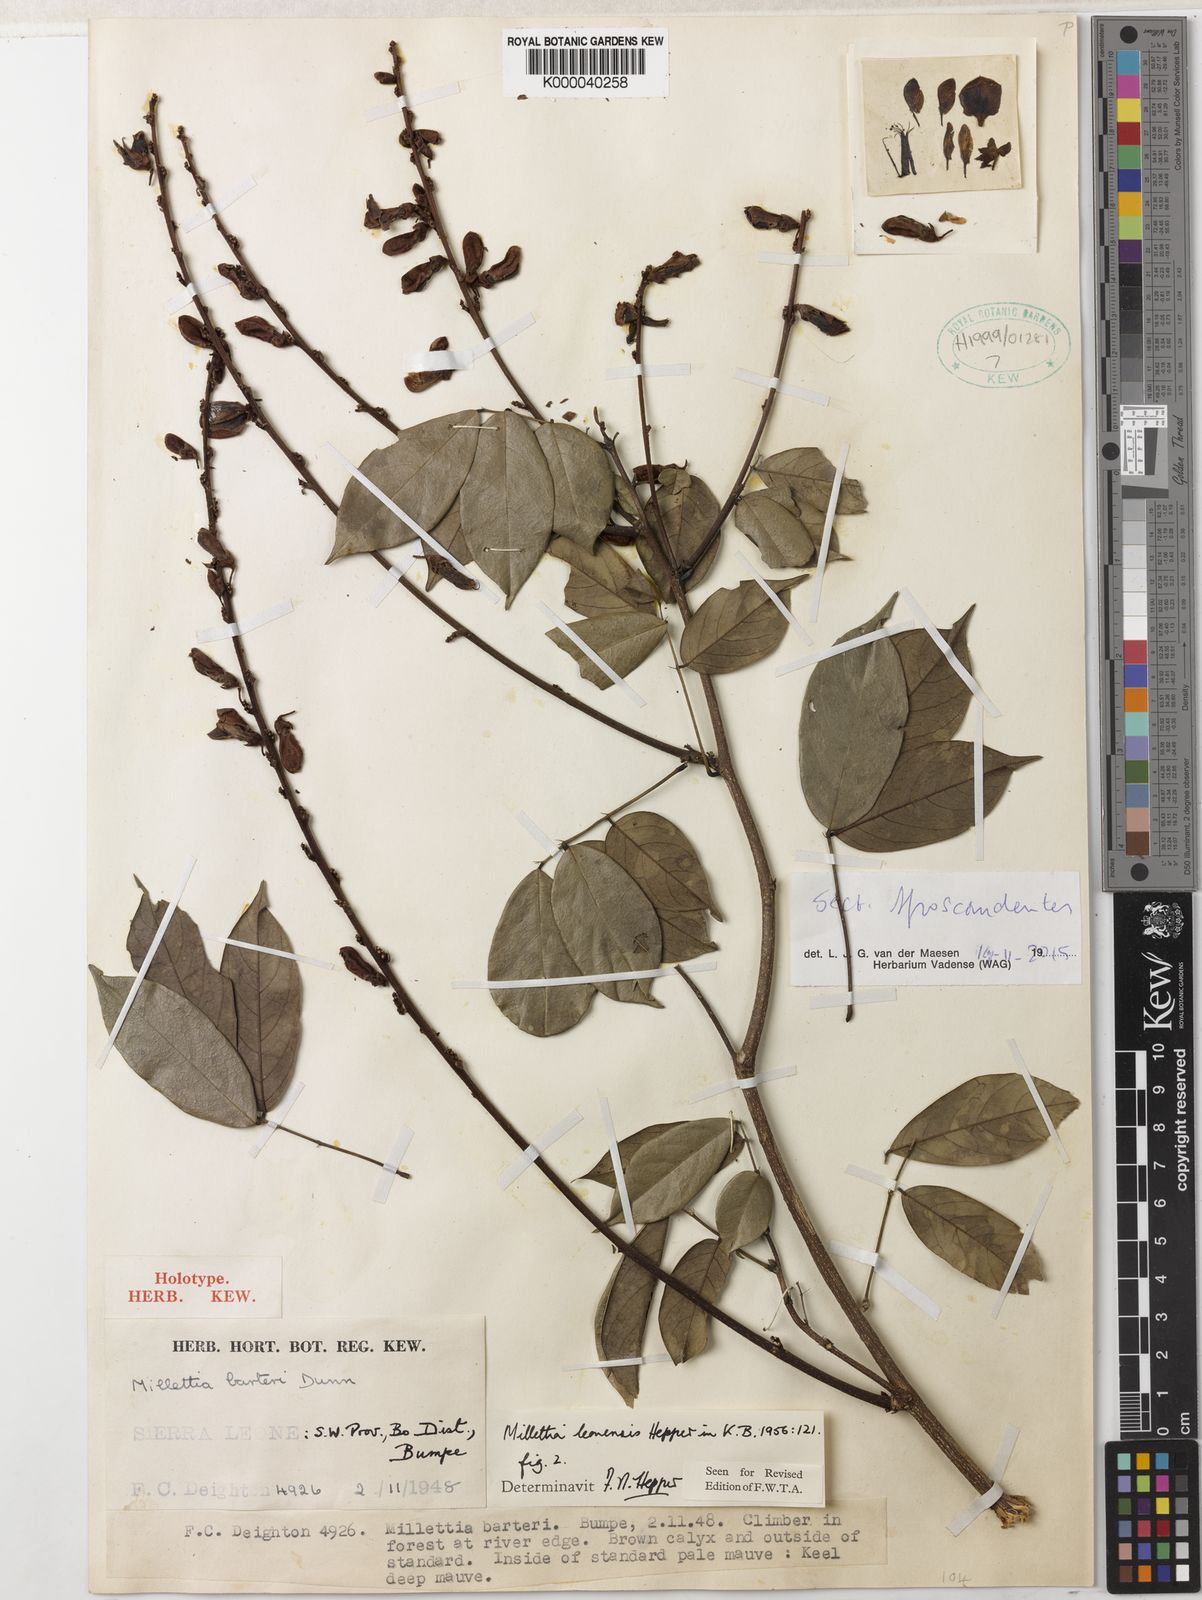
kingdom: Plantae
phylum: Tracheophyta
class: Magnoliopsida
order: Fabales
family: Fabaceae
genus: Millettia
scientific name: Millettia leonensis
